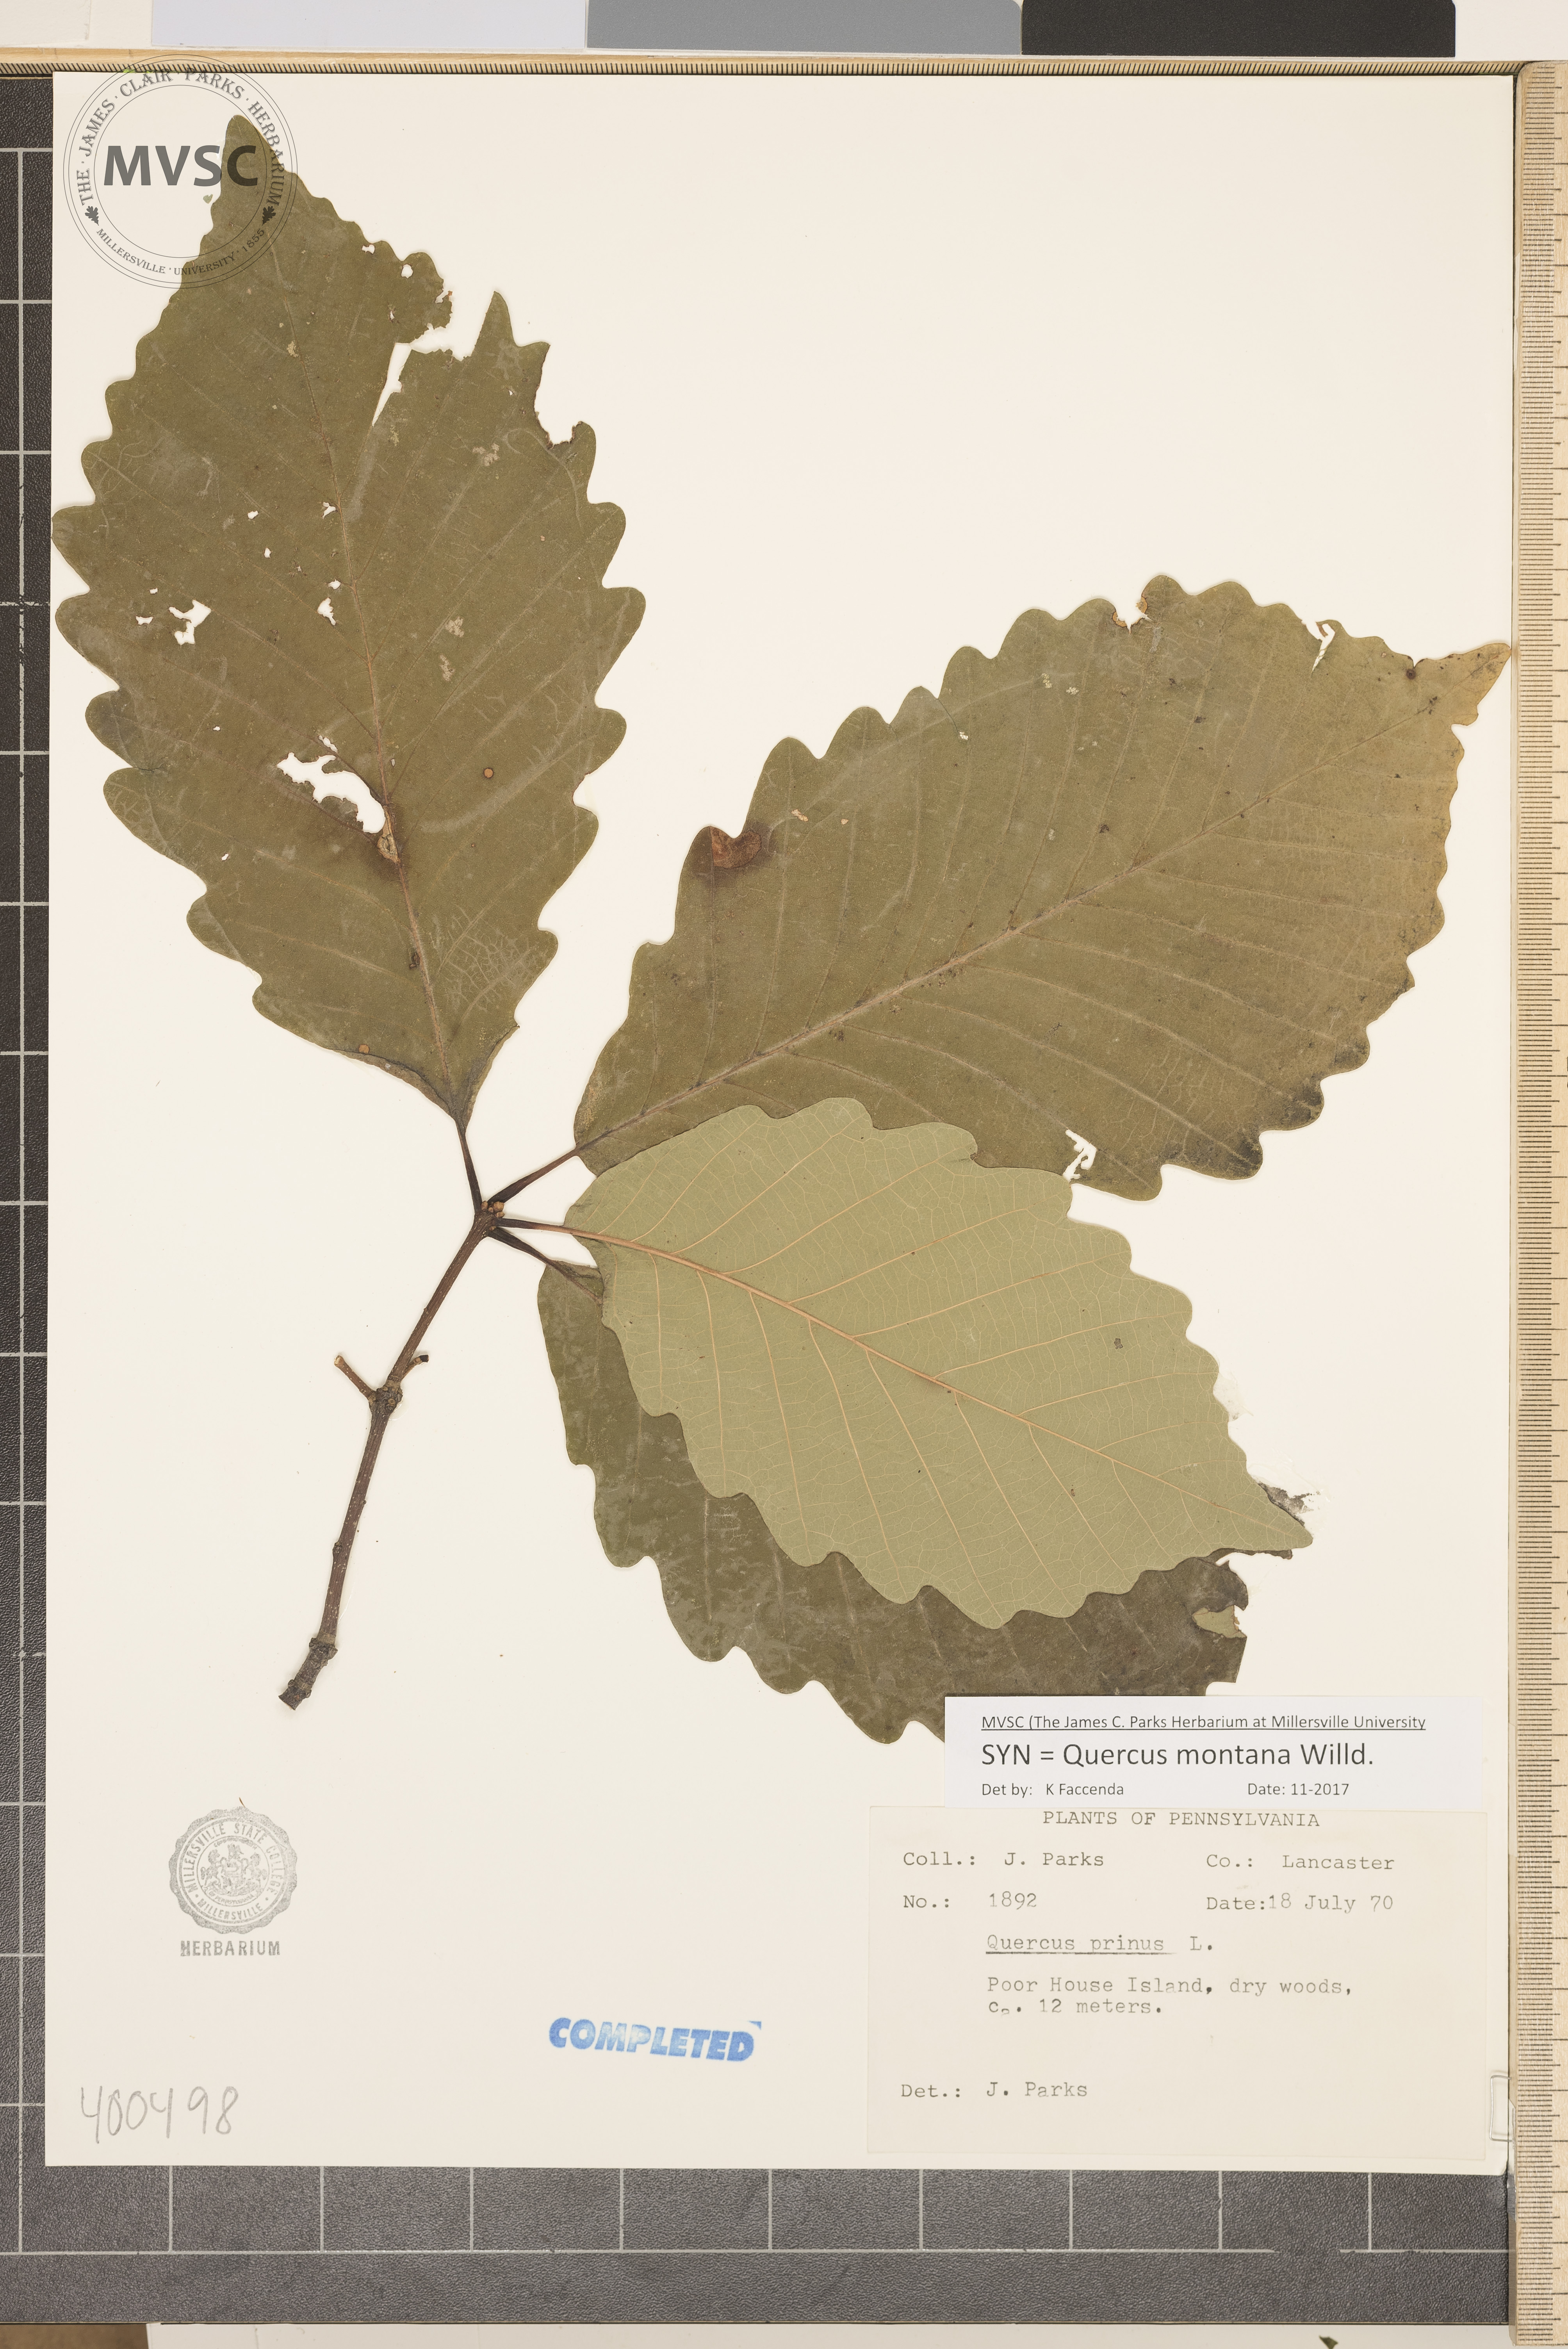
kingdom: Plantae
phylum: Tracheophyta
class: Magnoliopsida
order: Fagales
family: Fagaceae
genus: Quercus
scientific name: Quercus montana
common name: chestnut oak
